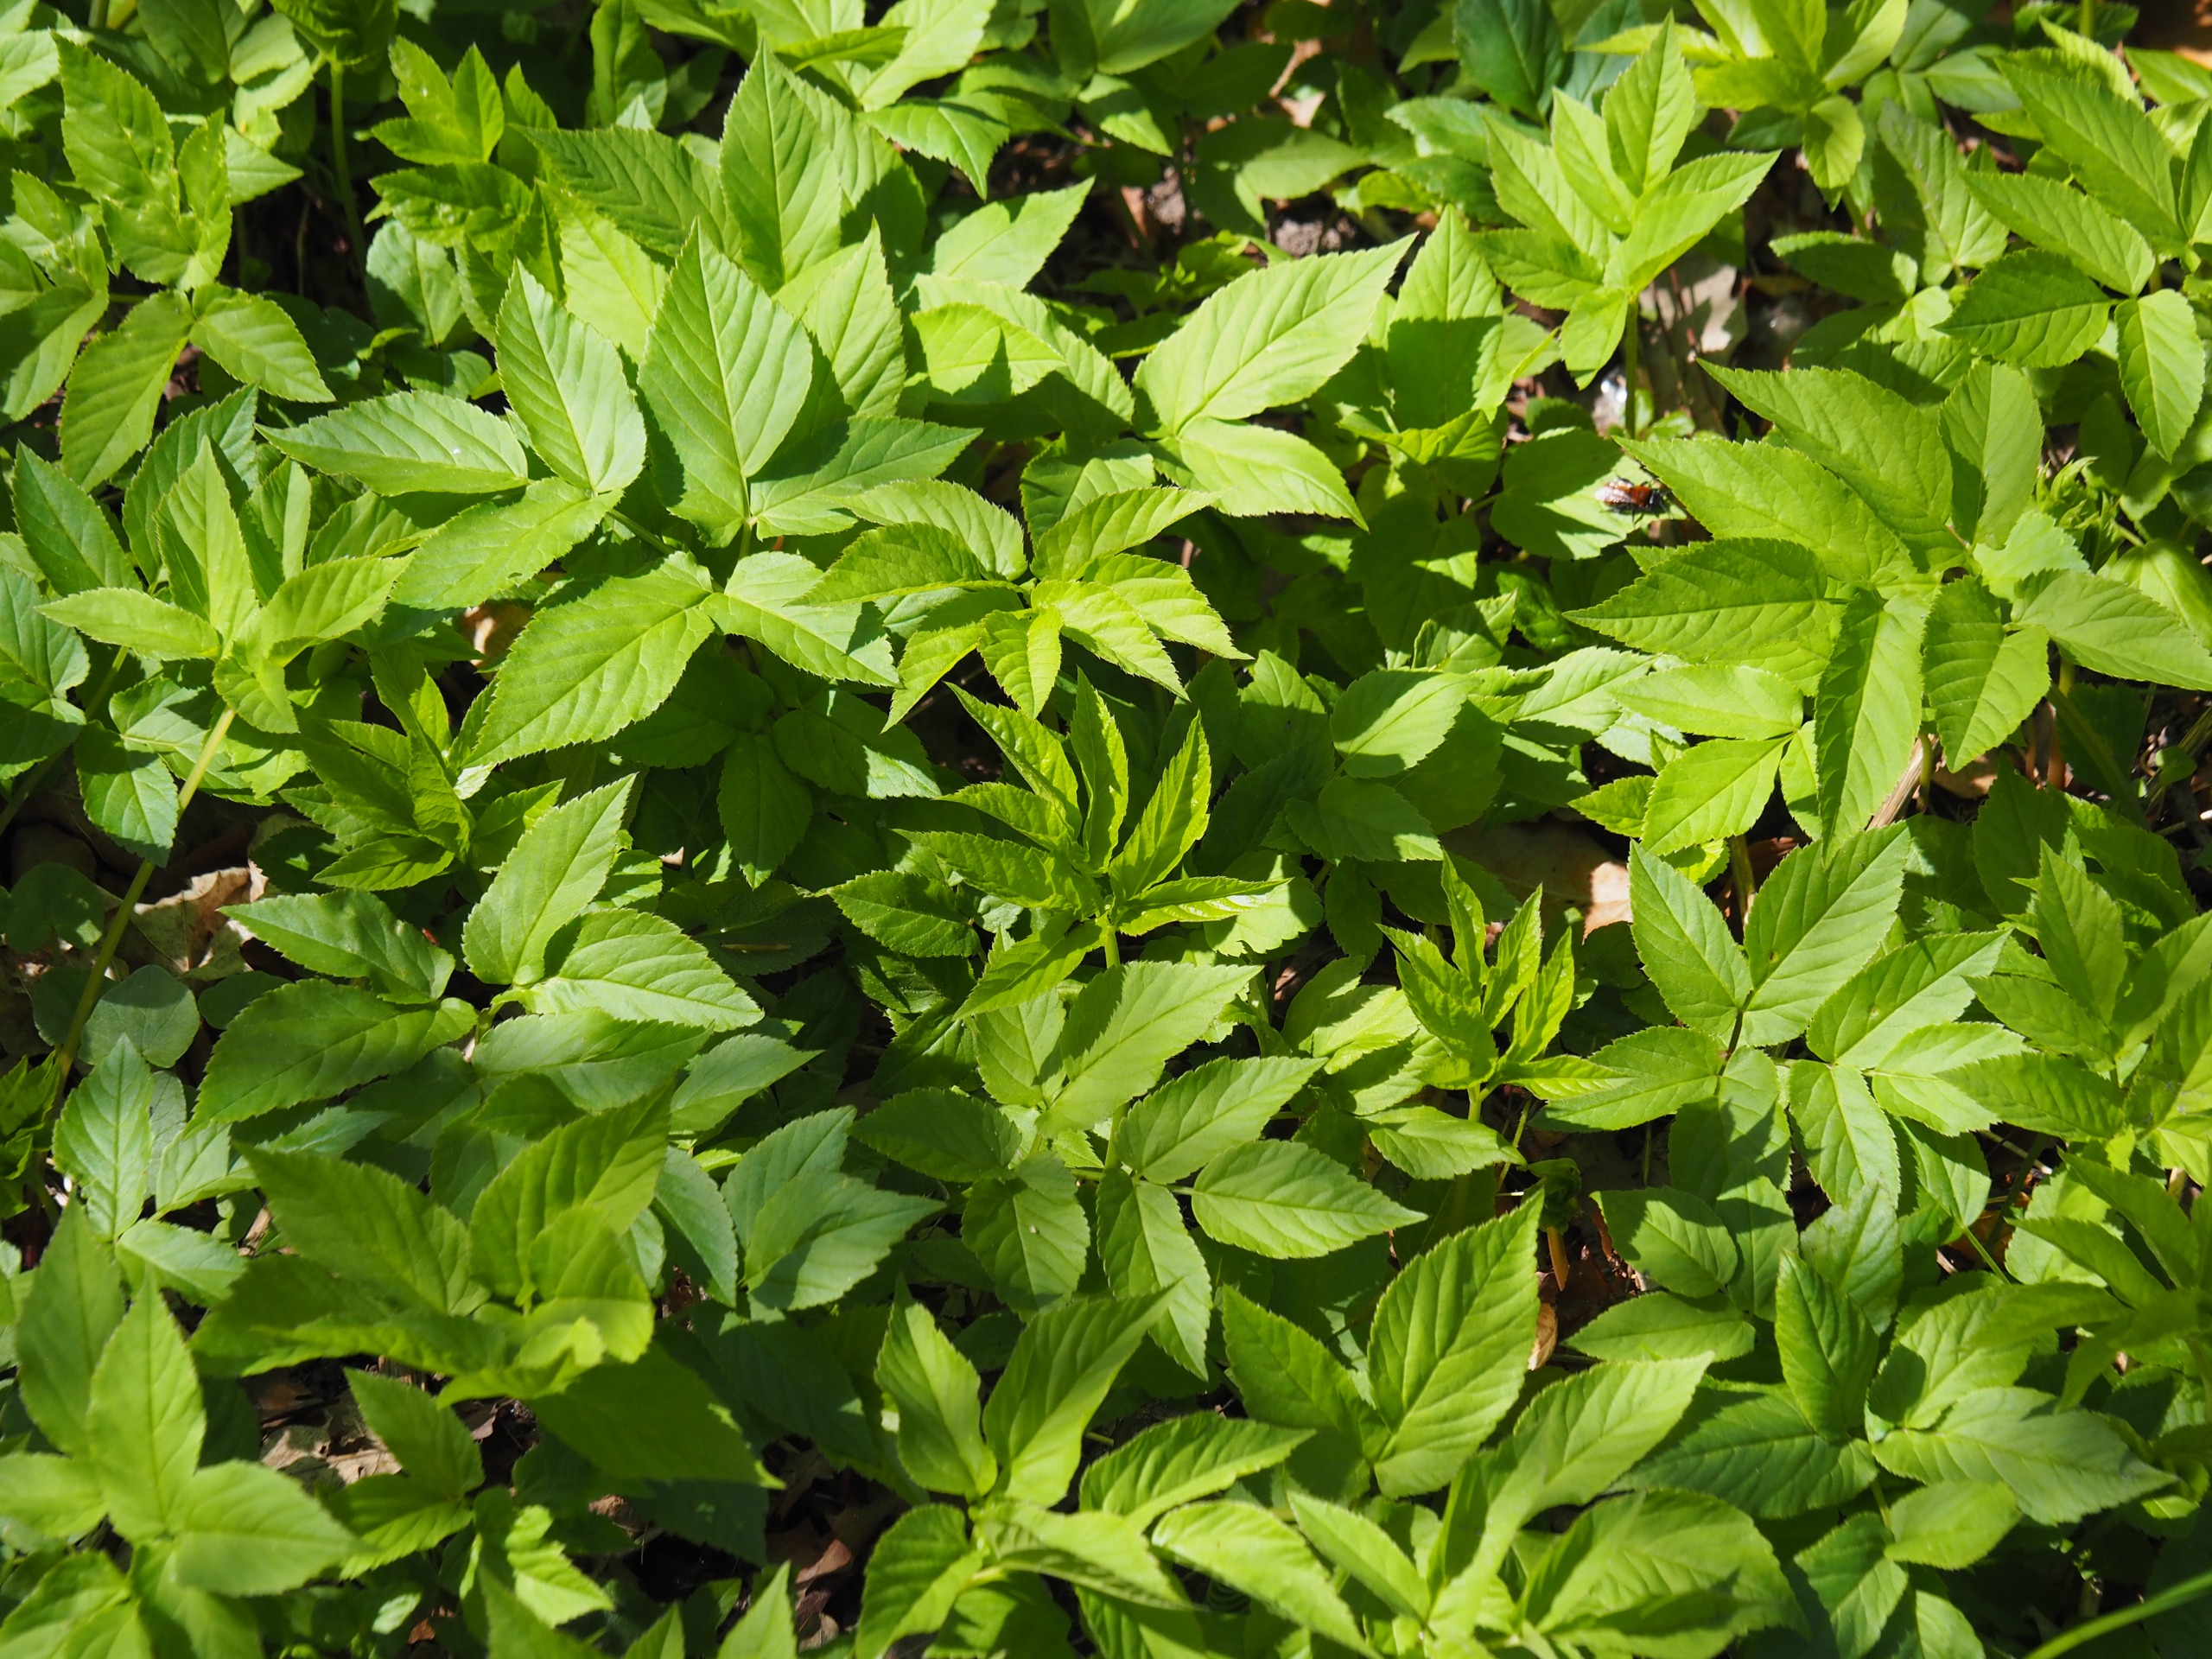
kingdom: Plantae
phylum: Tracheophyta
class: Magnoliopsida
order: Apiales
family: Apiaceae
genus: Aegopodium
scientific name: Aegopodium podagraria
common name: Skvalderkål
